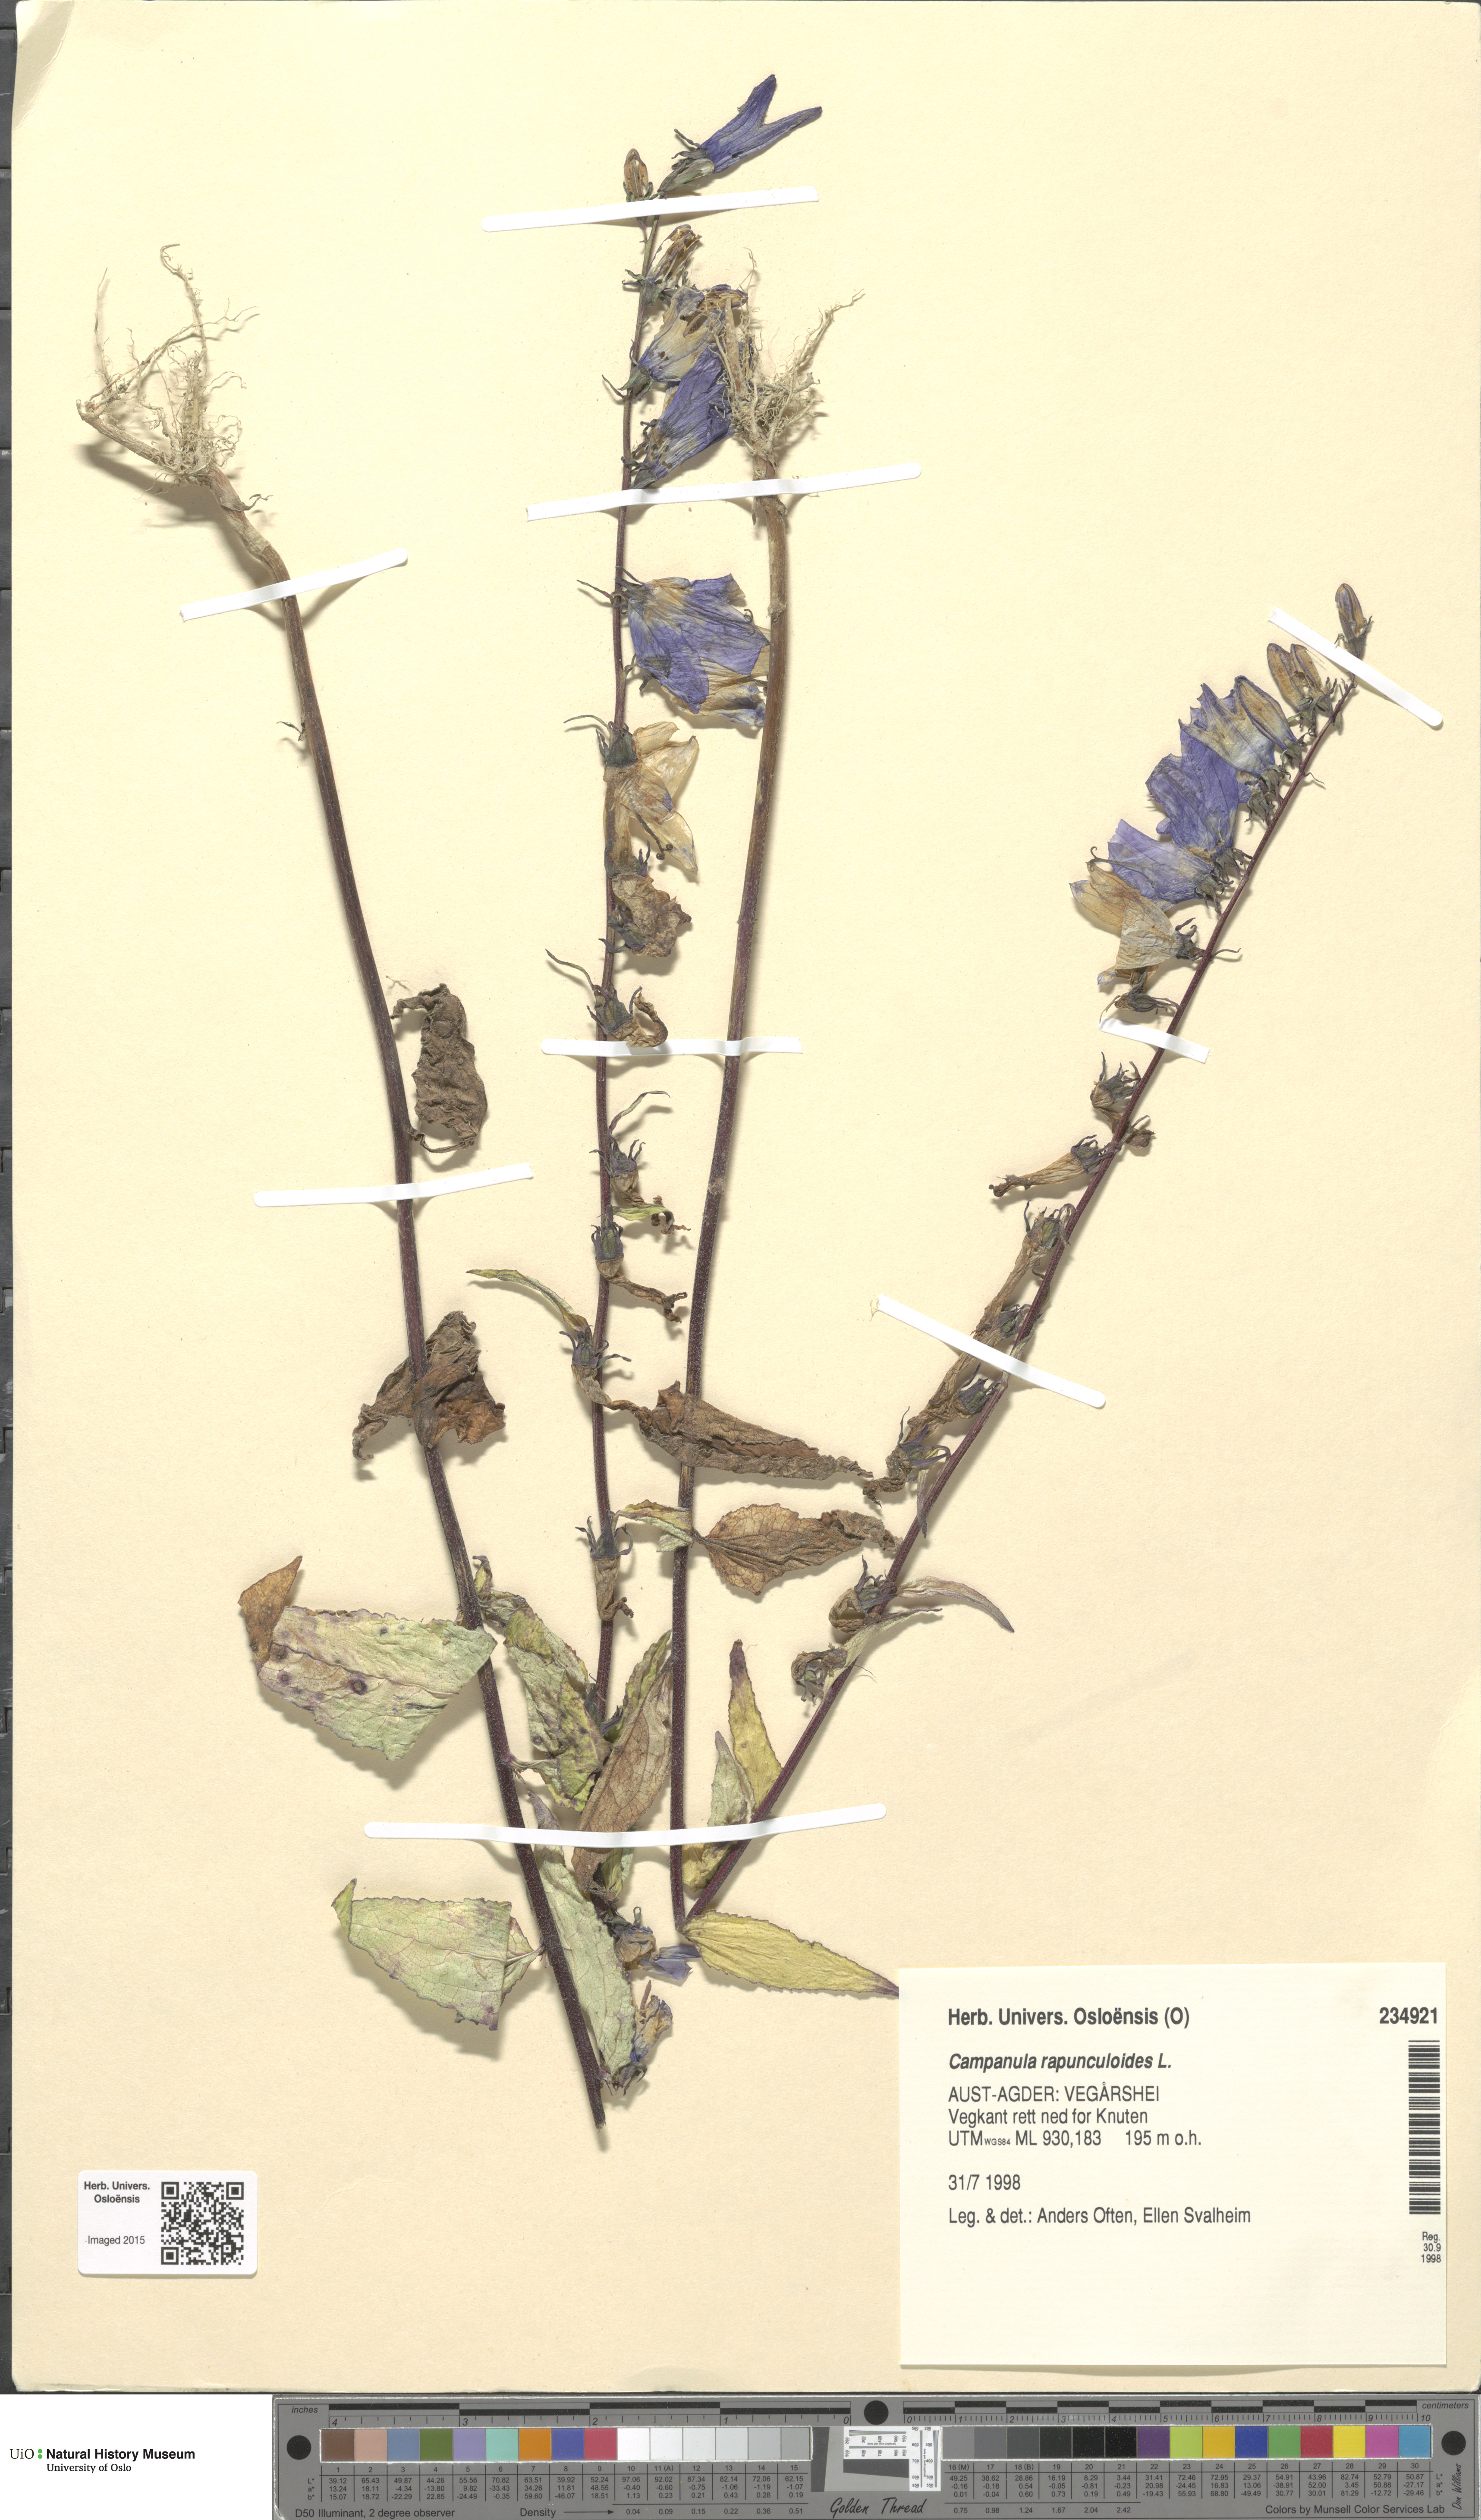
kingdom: Plantae
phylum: Tracheophyta
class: Magnoliopsida
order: Asterales
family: Campanulaceae
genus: Campanula
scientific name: Campanula rapunculoides
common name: Creeping bellflower
